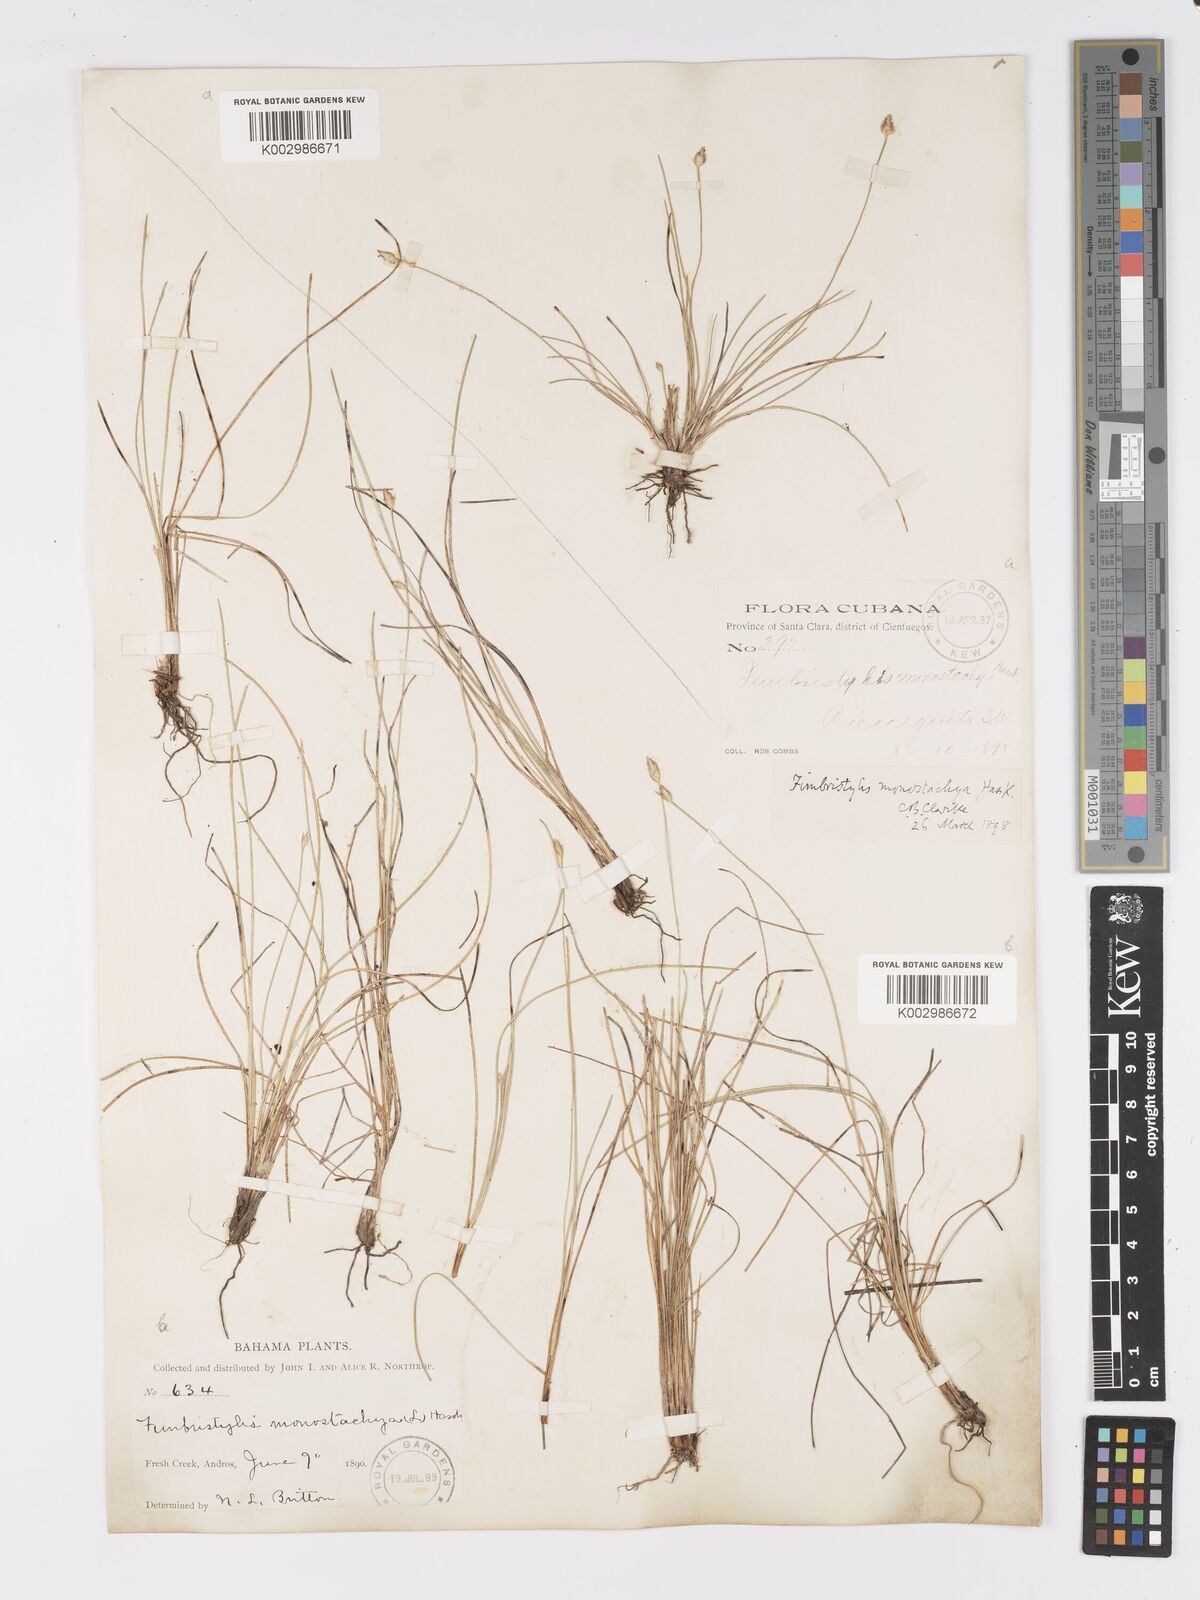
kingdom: Plantae
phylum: Tracheophyta
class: Liliopsida
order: Poales
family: Cyperaceae
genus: Abildgaardia
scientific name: Abildgaardia ovata
